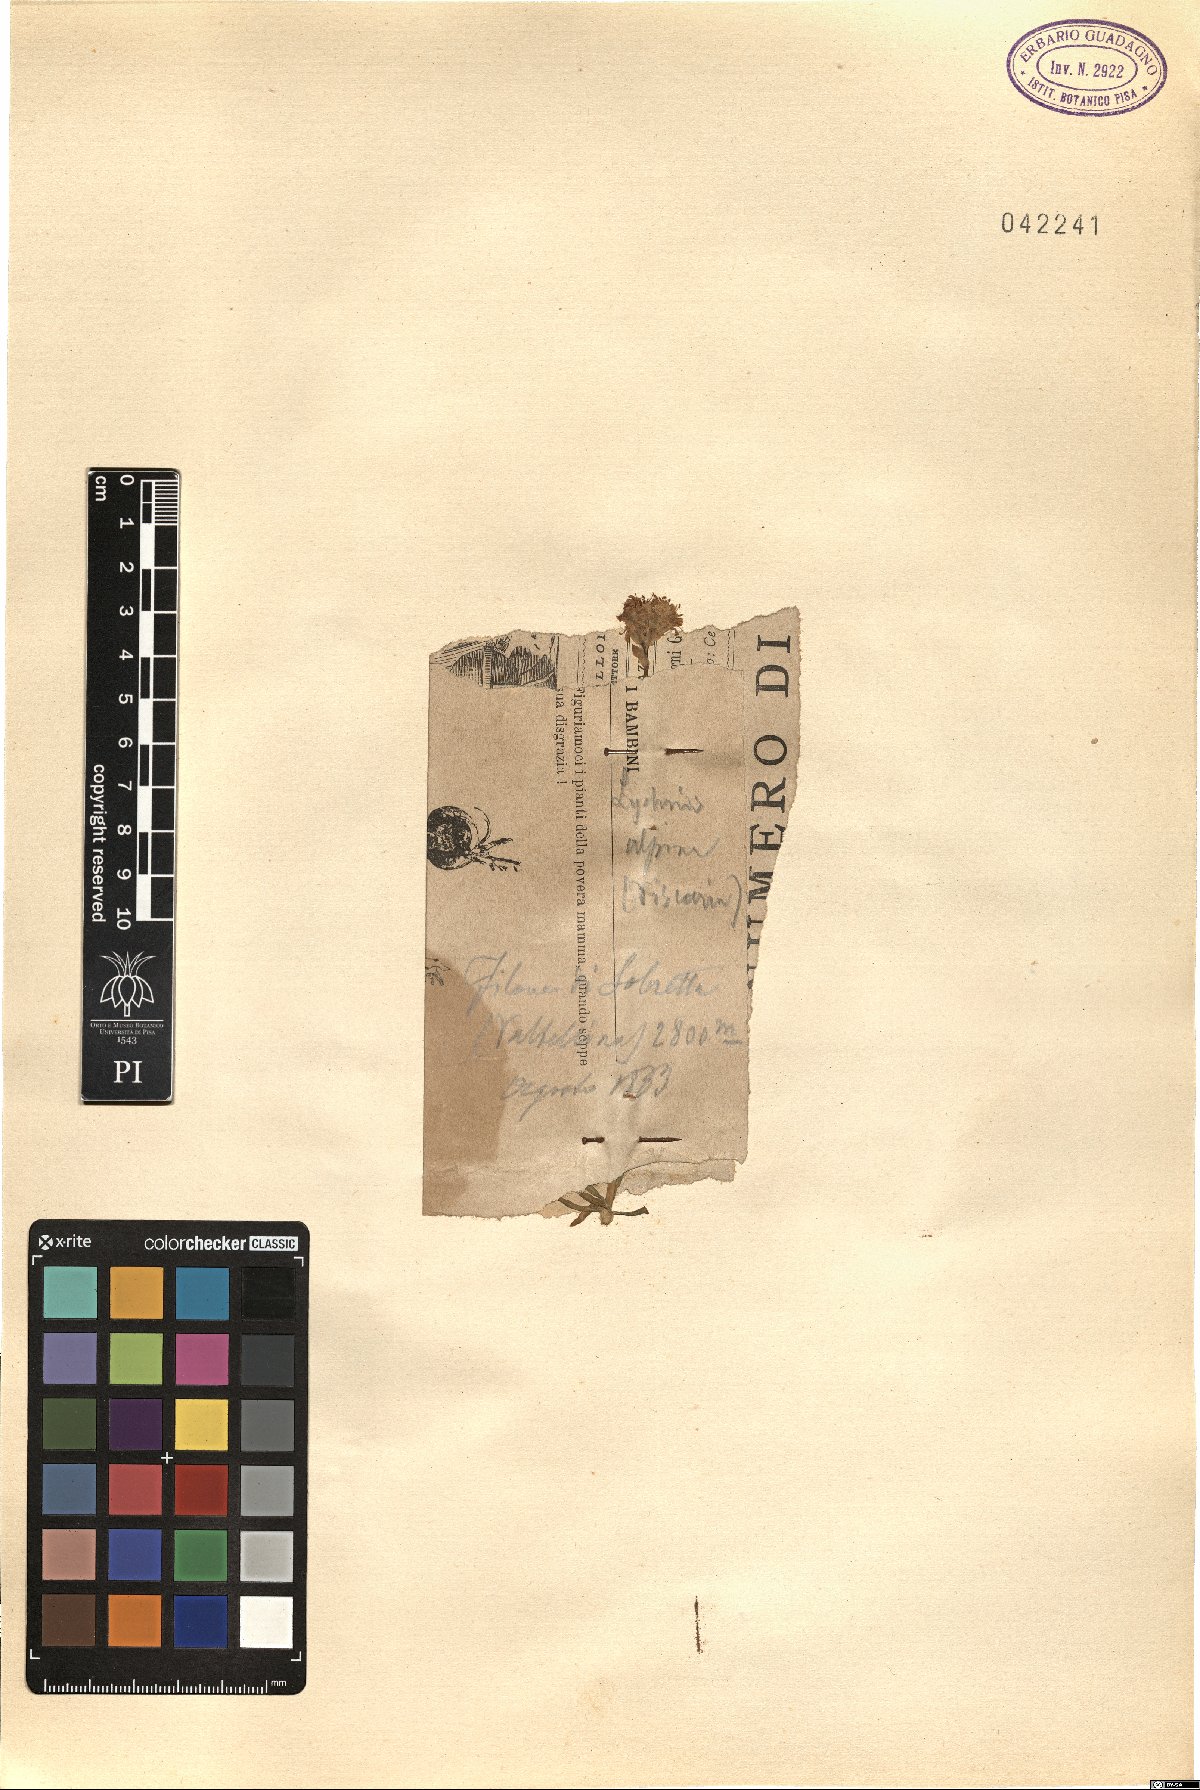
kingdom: Plantae
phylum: Tracheophyta
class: Magnoliopsida
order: Caryophyllales
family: Caryophyllaceae
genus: Viscaria
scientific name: Viscaria alpina
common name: Alpine campion
